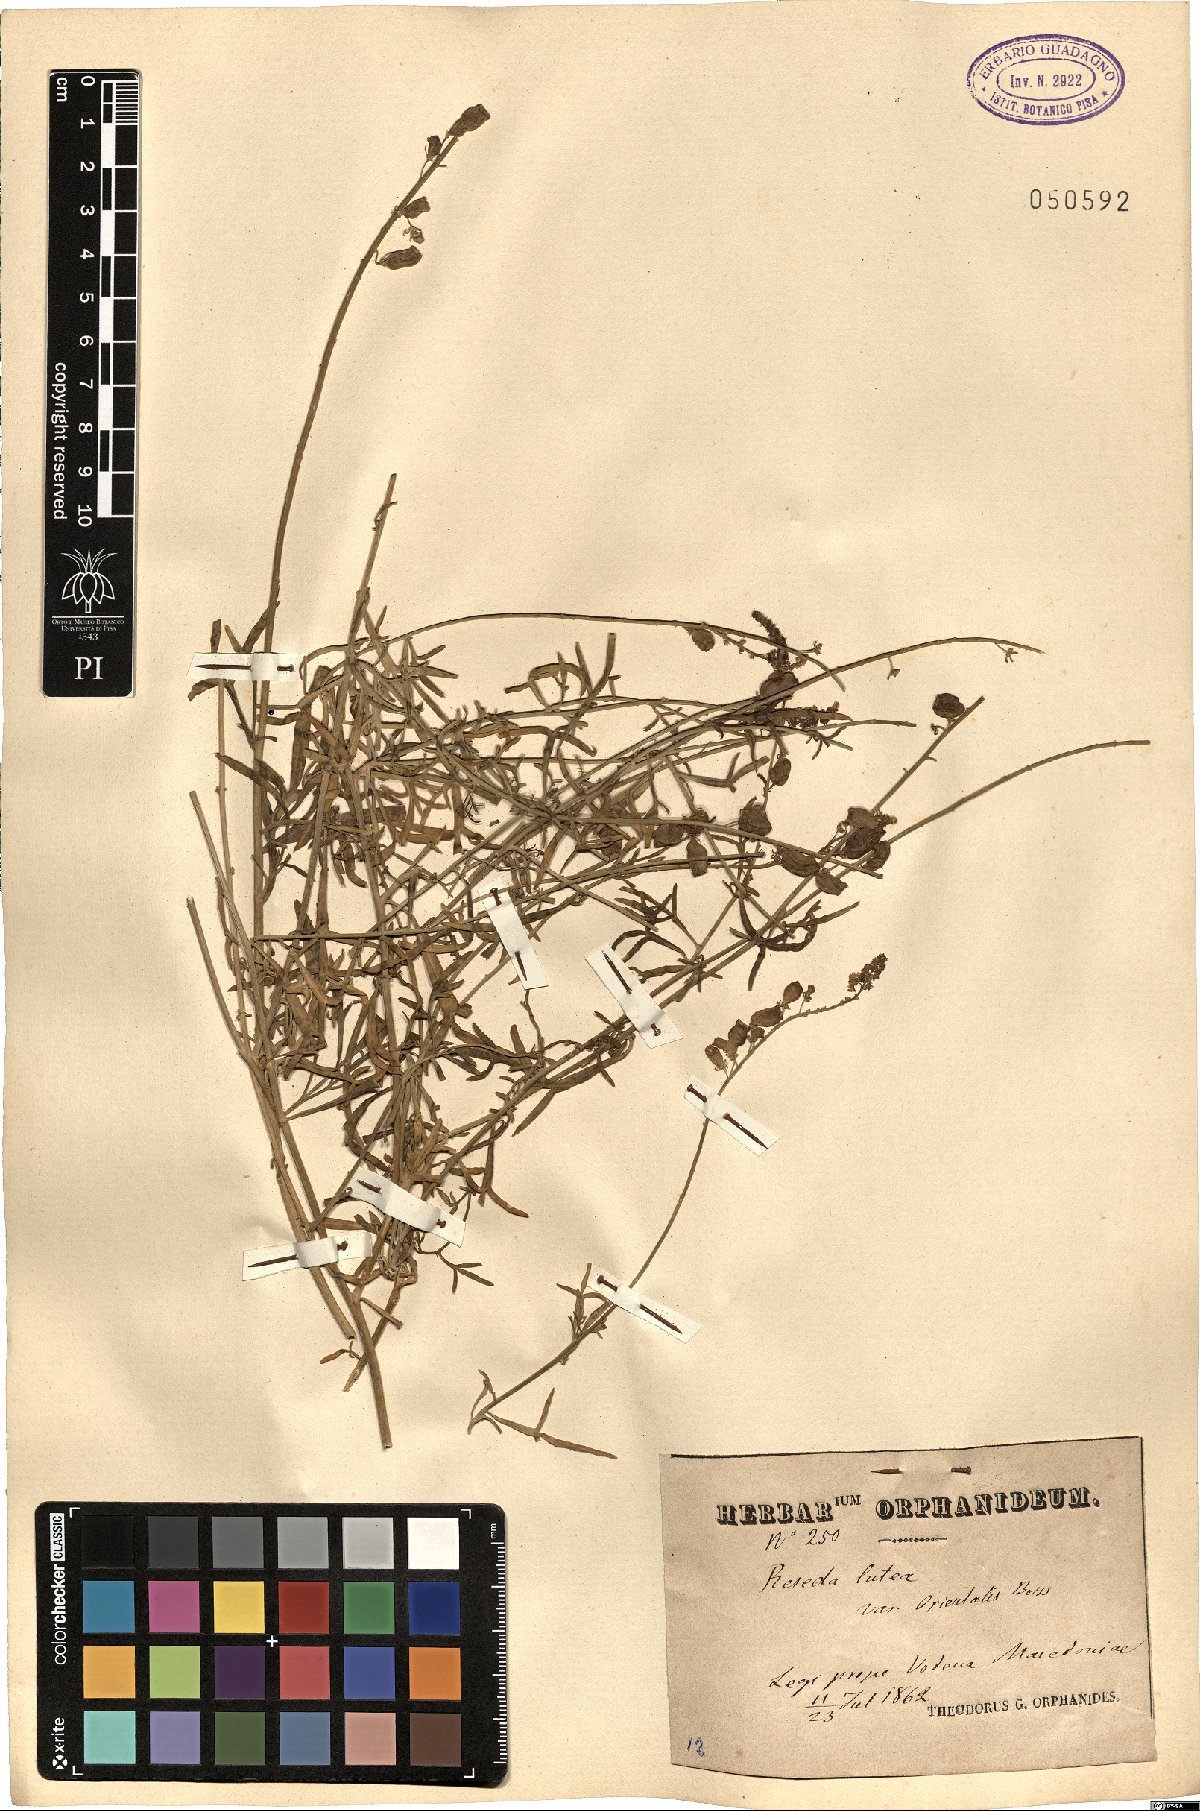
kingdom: Plantae
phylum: Tracheophyta
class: Magnoliopsida
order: Brassicales
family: Resedaceae
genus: Reseda
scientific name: Reseda lutea
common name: Wild mignonette
